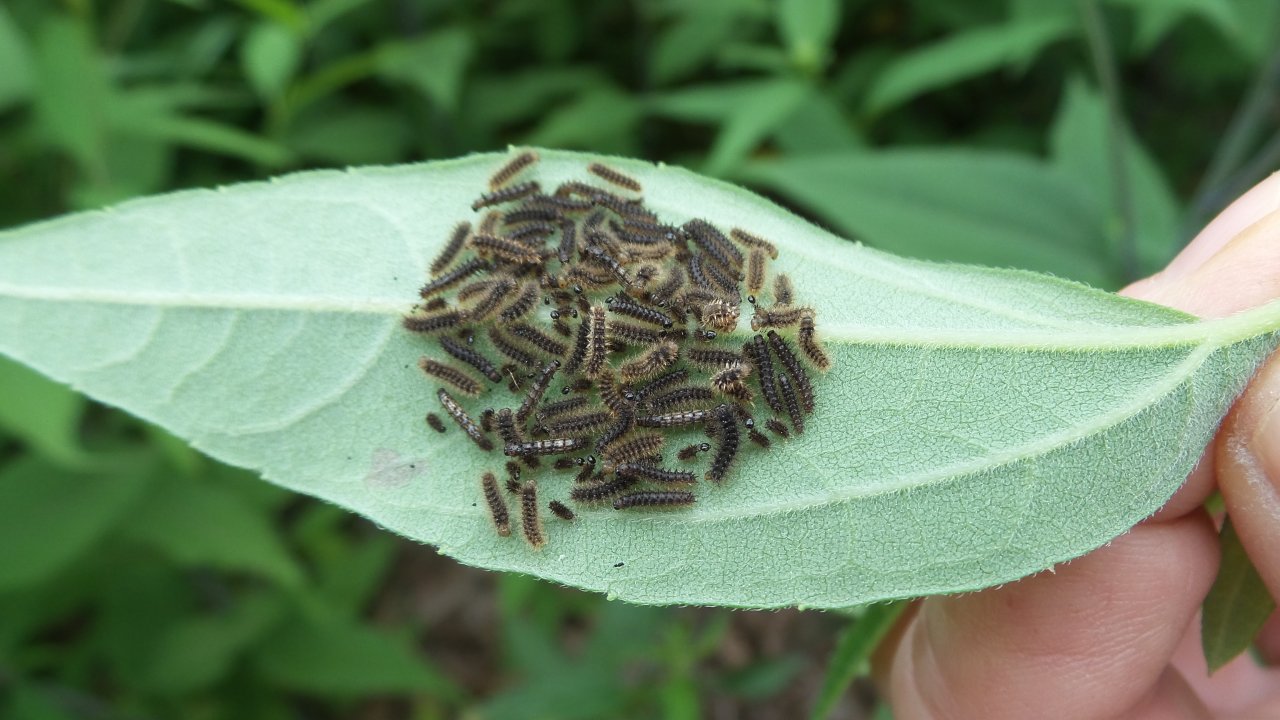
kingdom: Animalia
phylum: Arthropoda
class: Insecta
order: Lepidoptera
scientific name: Lepidoptera
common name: Butterflies
